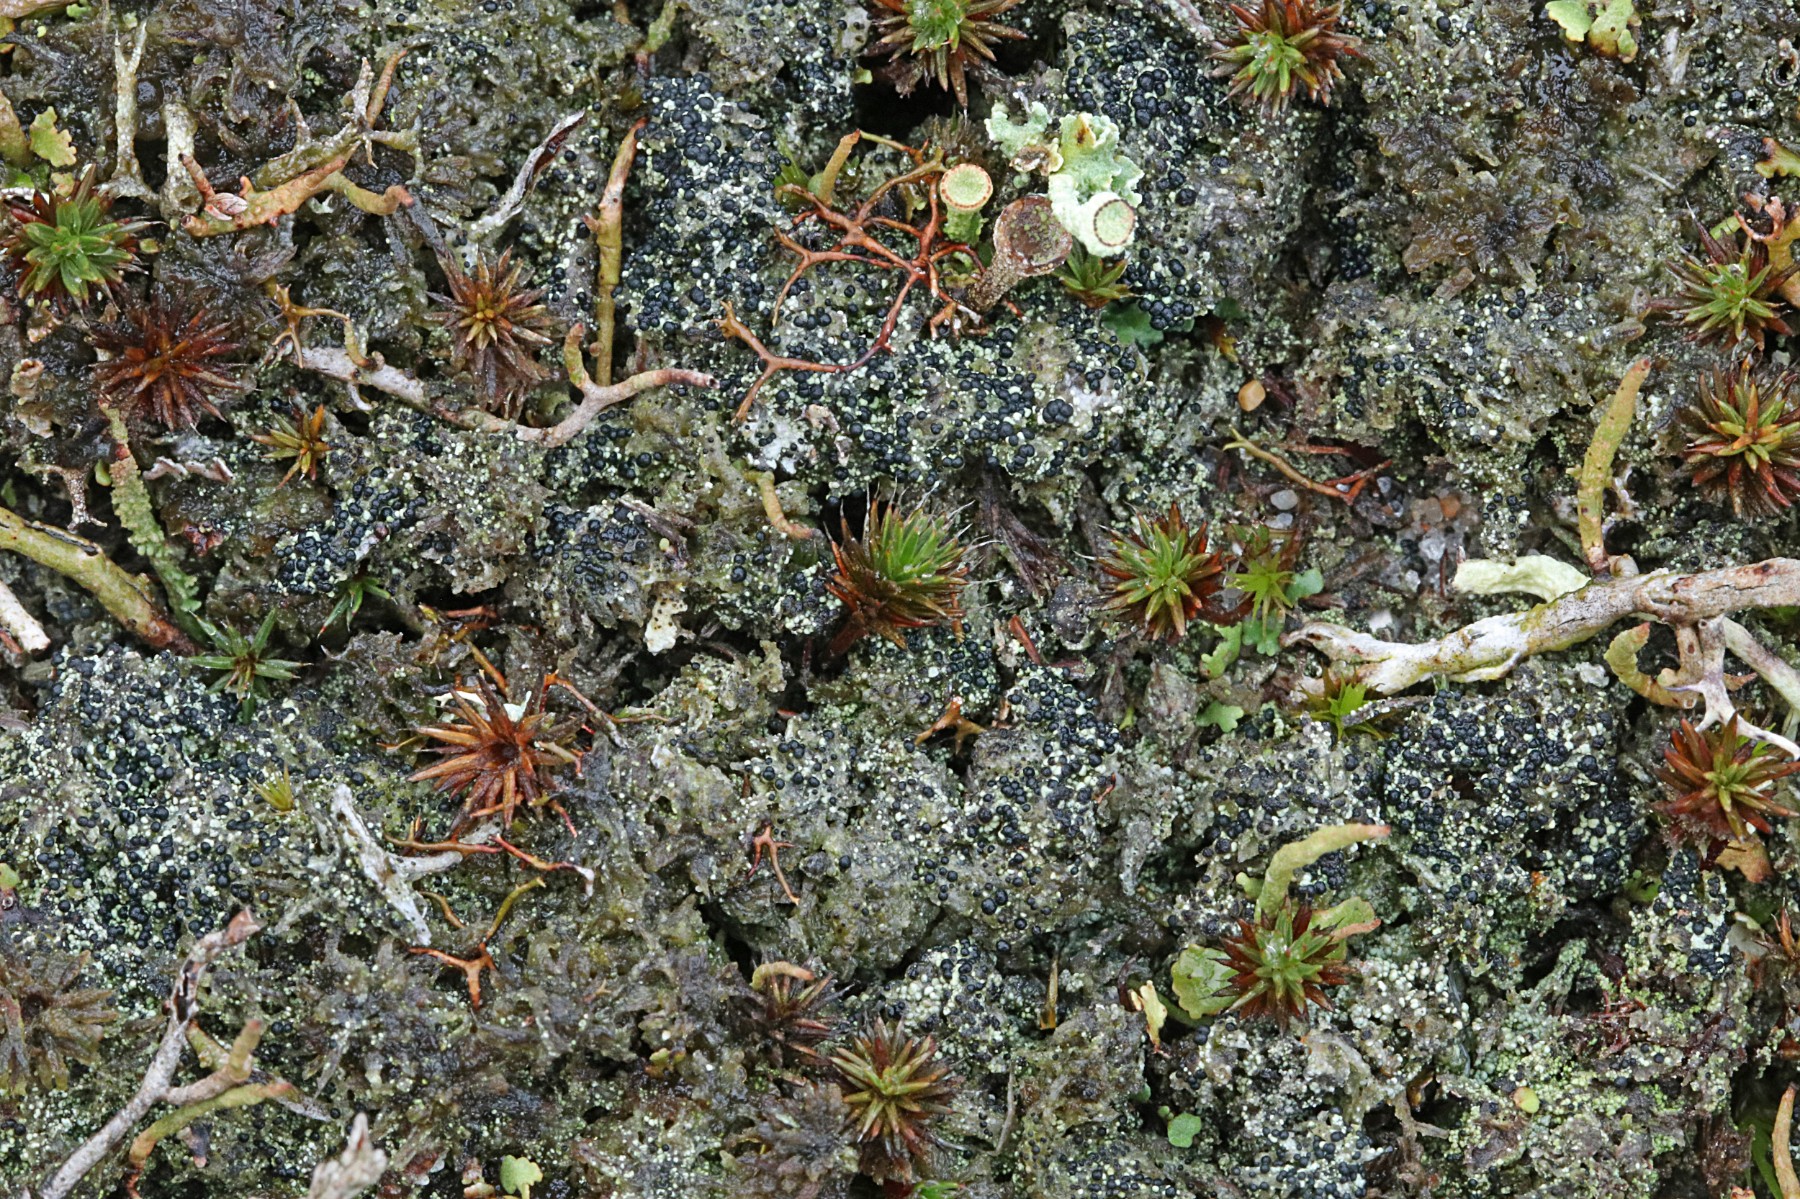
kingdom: Fungi
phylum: Ascomycota
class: Lecanoromycetes
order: Lecanorales
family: Byssolomataceae
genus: Micarea
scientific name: Micarea lignaria
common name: tørve-knaplav
